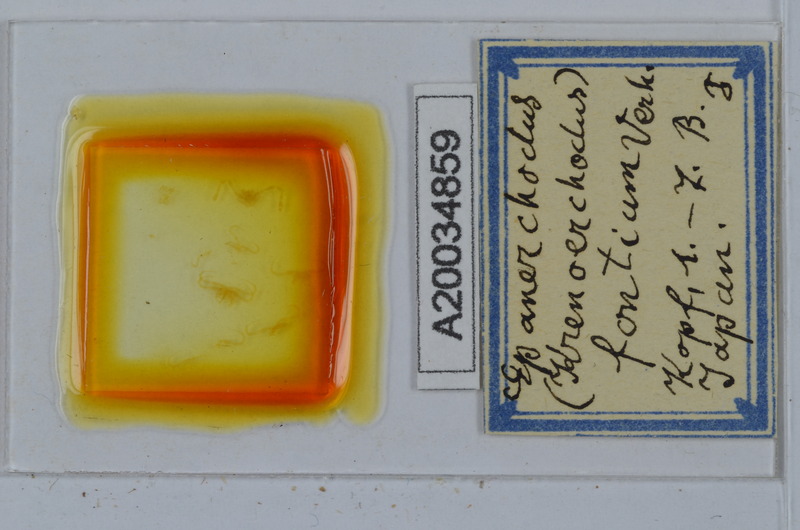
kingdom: Animalia
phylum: Arthropoda
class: Diplopoda
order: Polydesmida
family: Polydesmidae
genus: Epanerchodus
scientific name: Epanerchodus fontium
